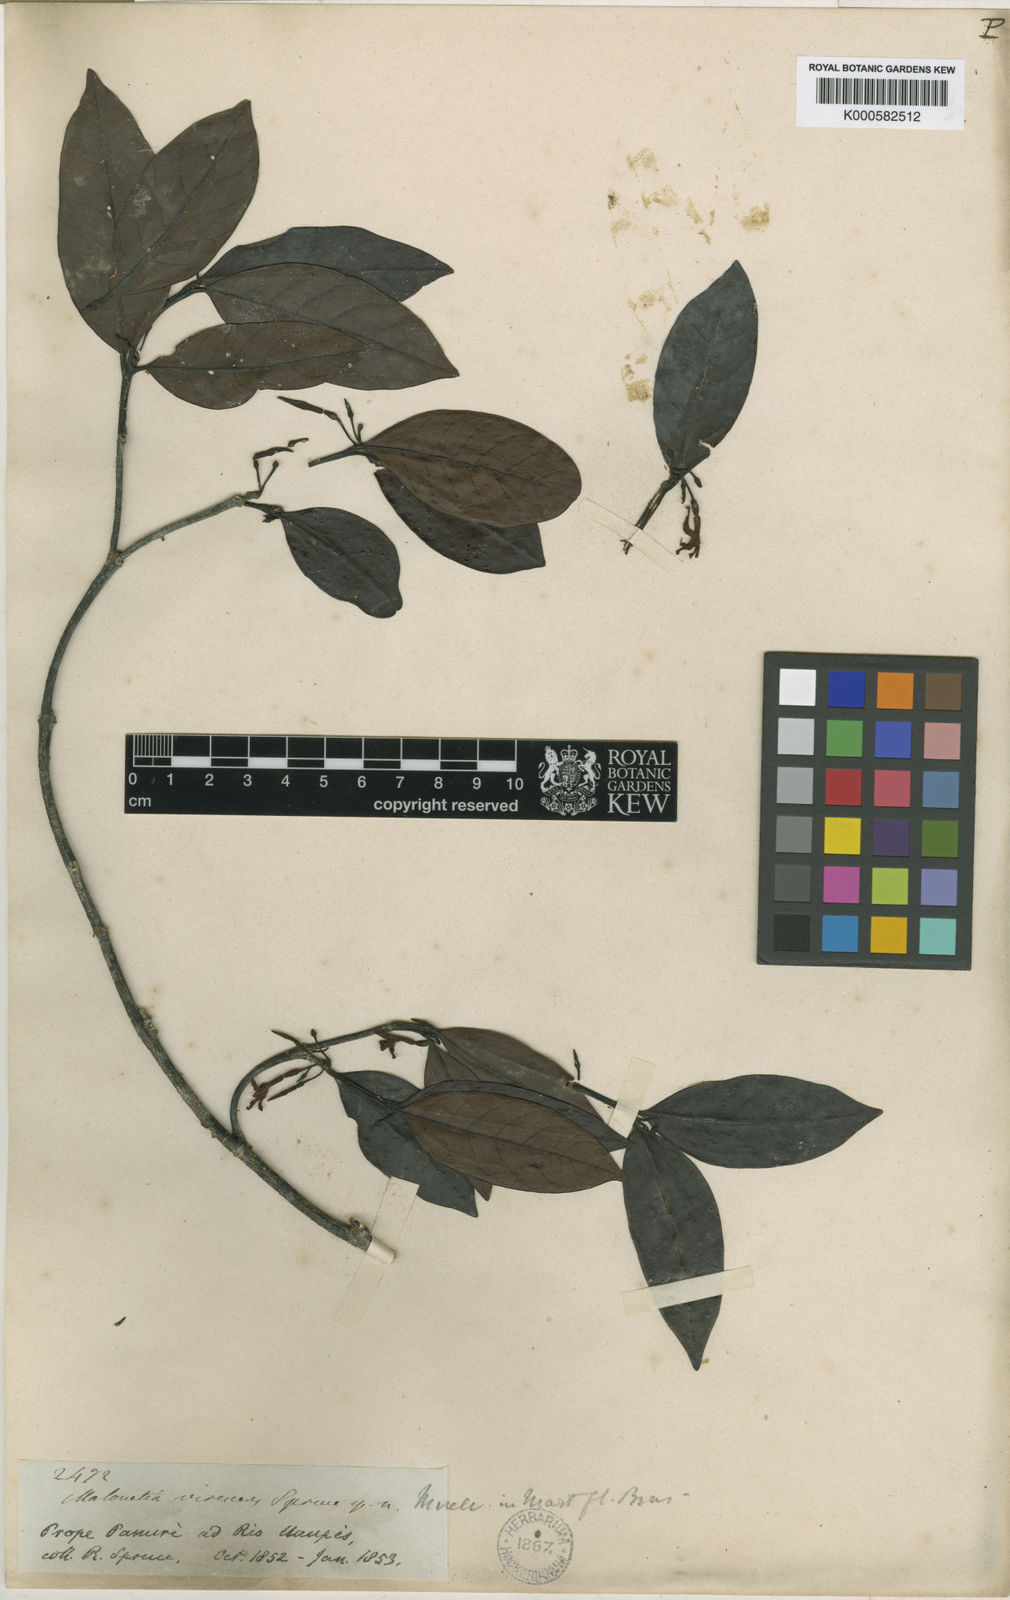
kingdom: Plantae
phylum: Tracheophyta
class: Magnoliopsida
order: Gentianales
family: Apocynaceae
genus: Malouetia
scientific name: Malouetia
